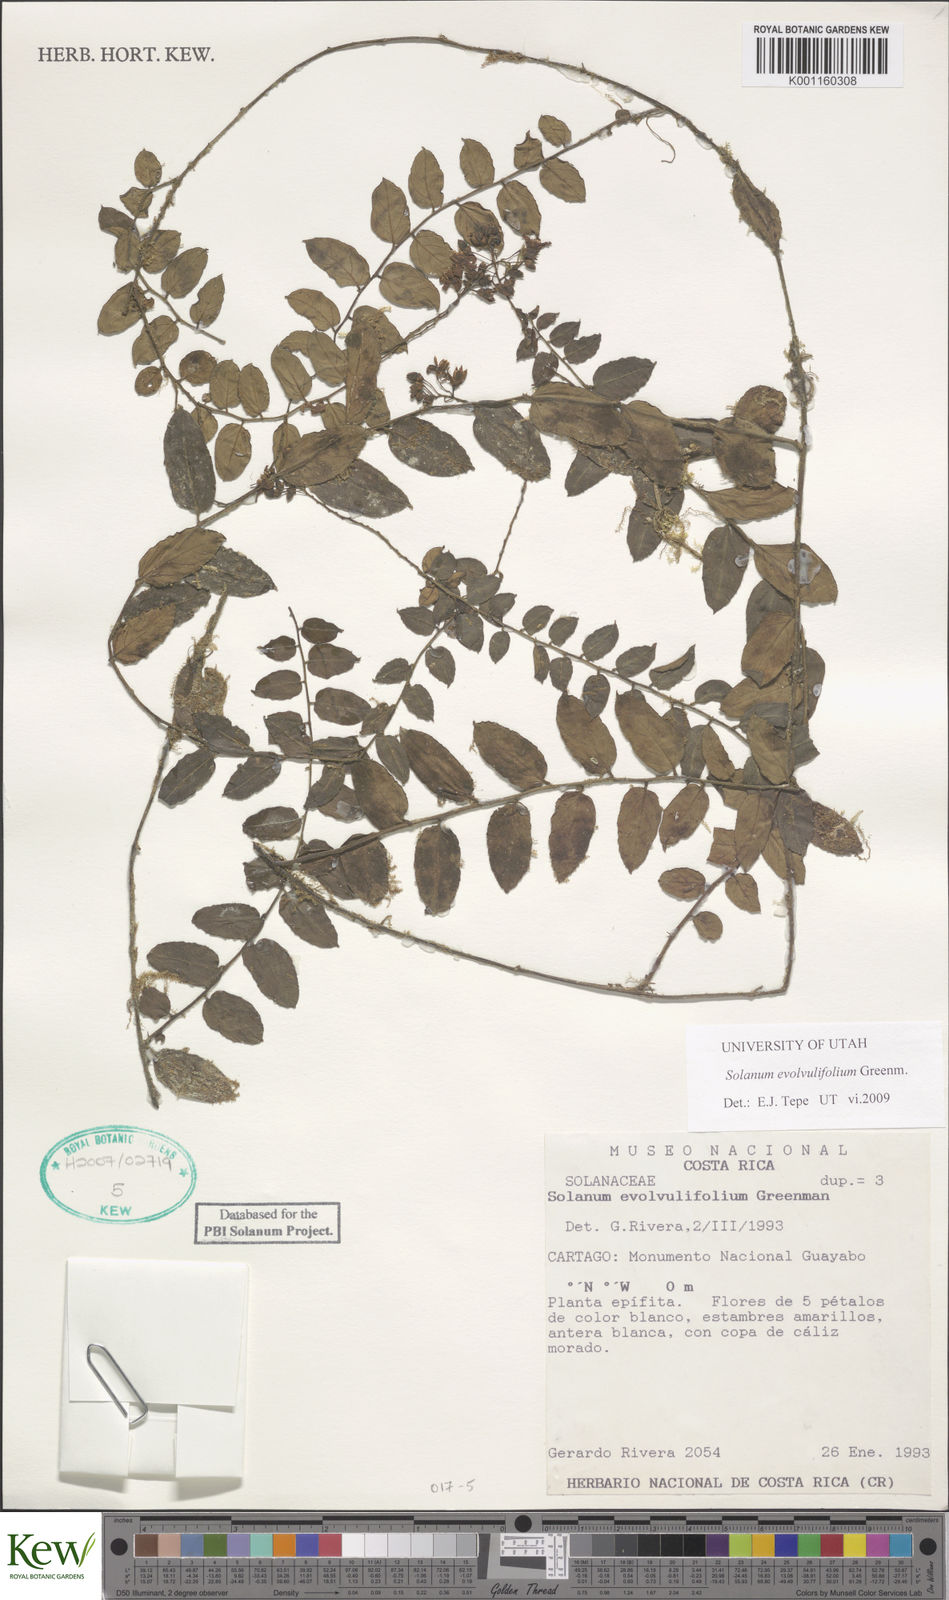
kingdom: Plantae
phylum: Tracheophyta
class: Magnoliopsida
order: Solanales
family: Solanaceae
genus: Solanum
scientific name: Solanum evolvulifolium
